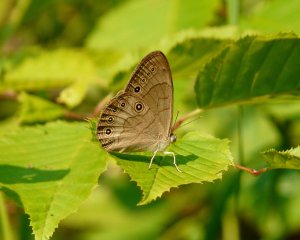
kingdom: Animalia
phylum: Arthropoda
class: Insecta
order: Lepidoptera
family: Nymphalidae
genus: Lethe
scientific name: Lethe eurydice
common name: Appalachian Eyed Brown
